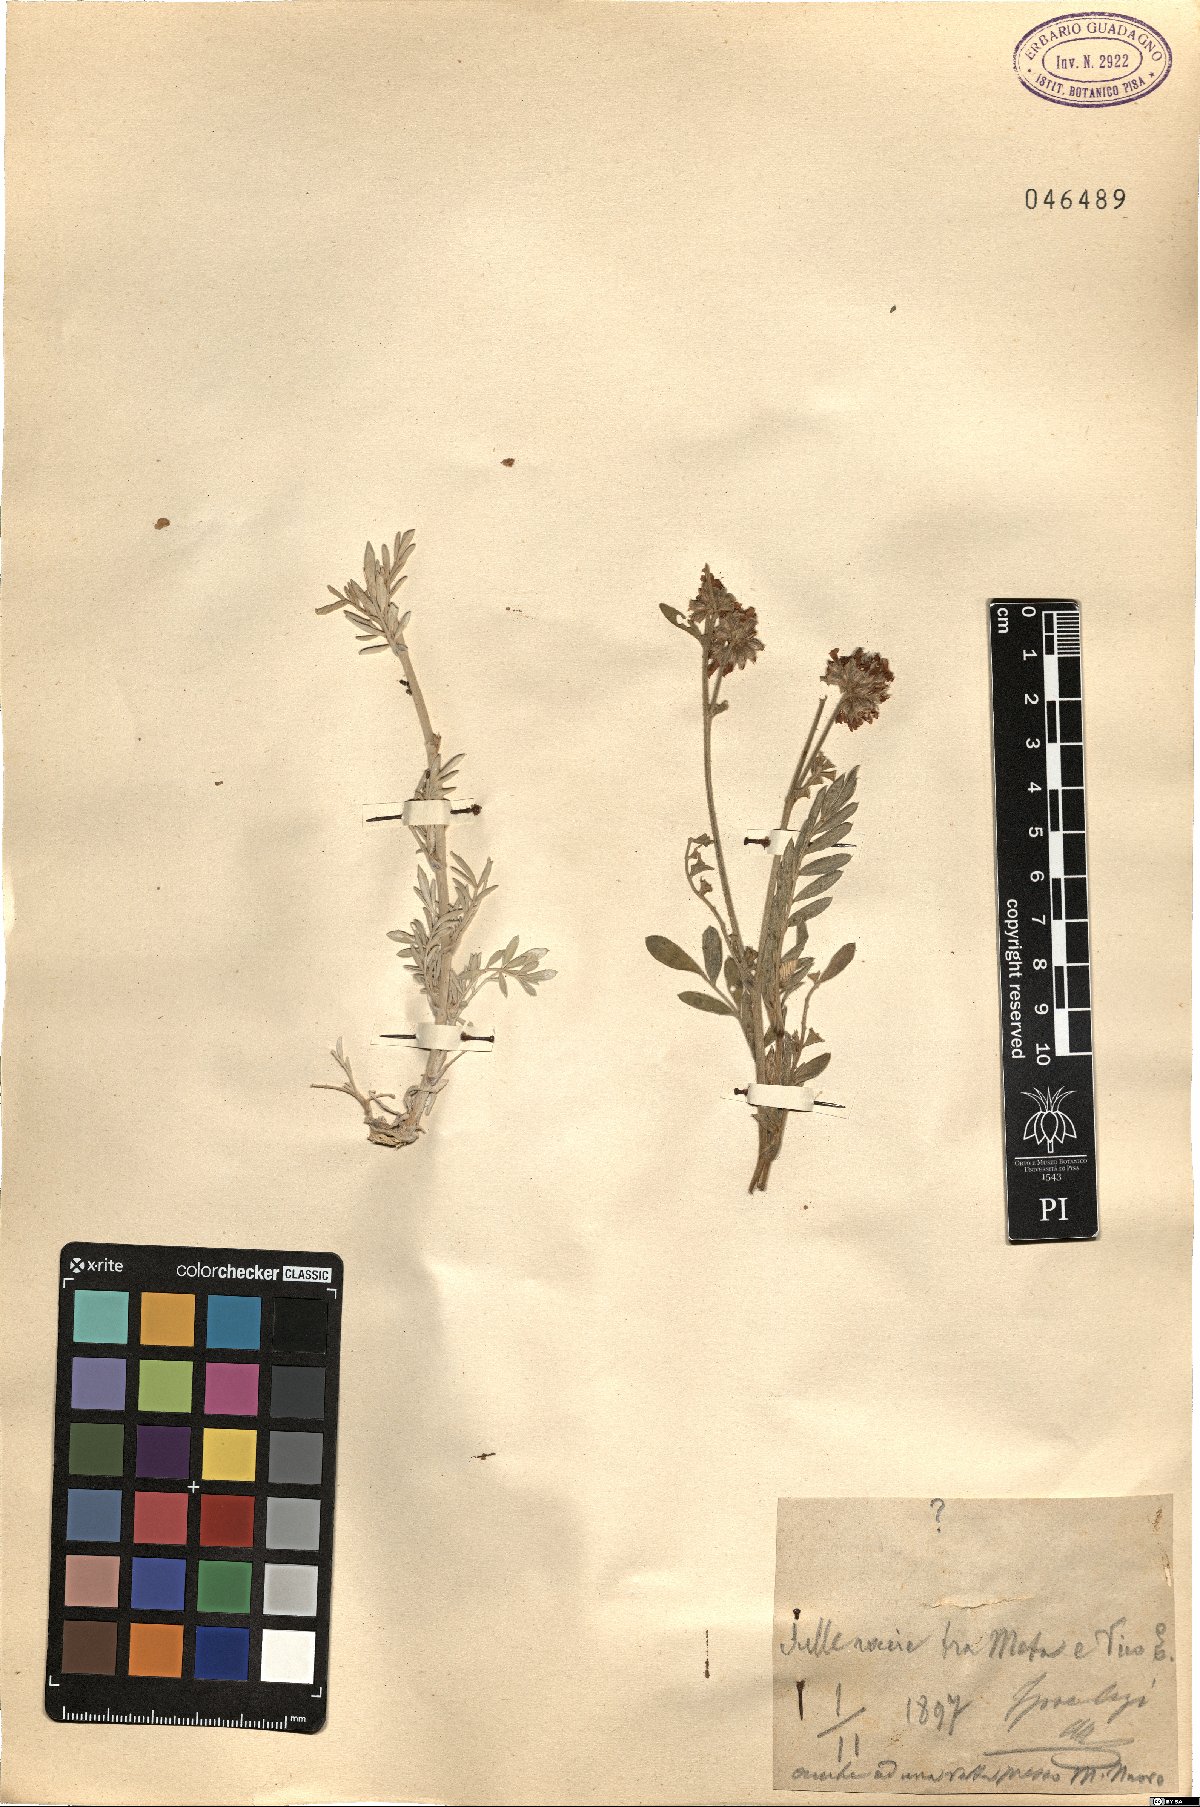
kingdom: Plantae
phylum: Tracheophyta
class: Magnoliopsida
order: Fabales
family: Fabaceae
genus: Anthyllis
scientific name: Anthyllis
